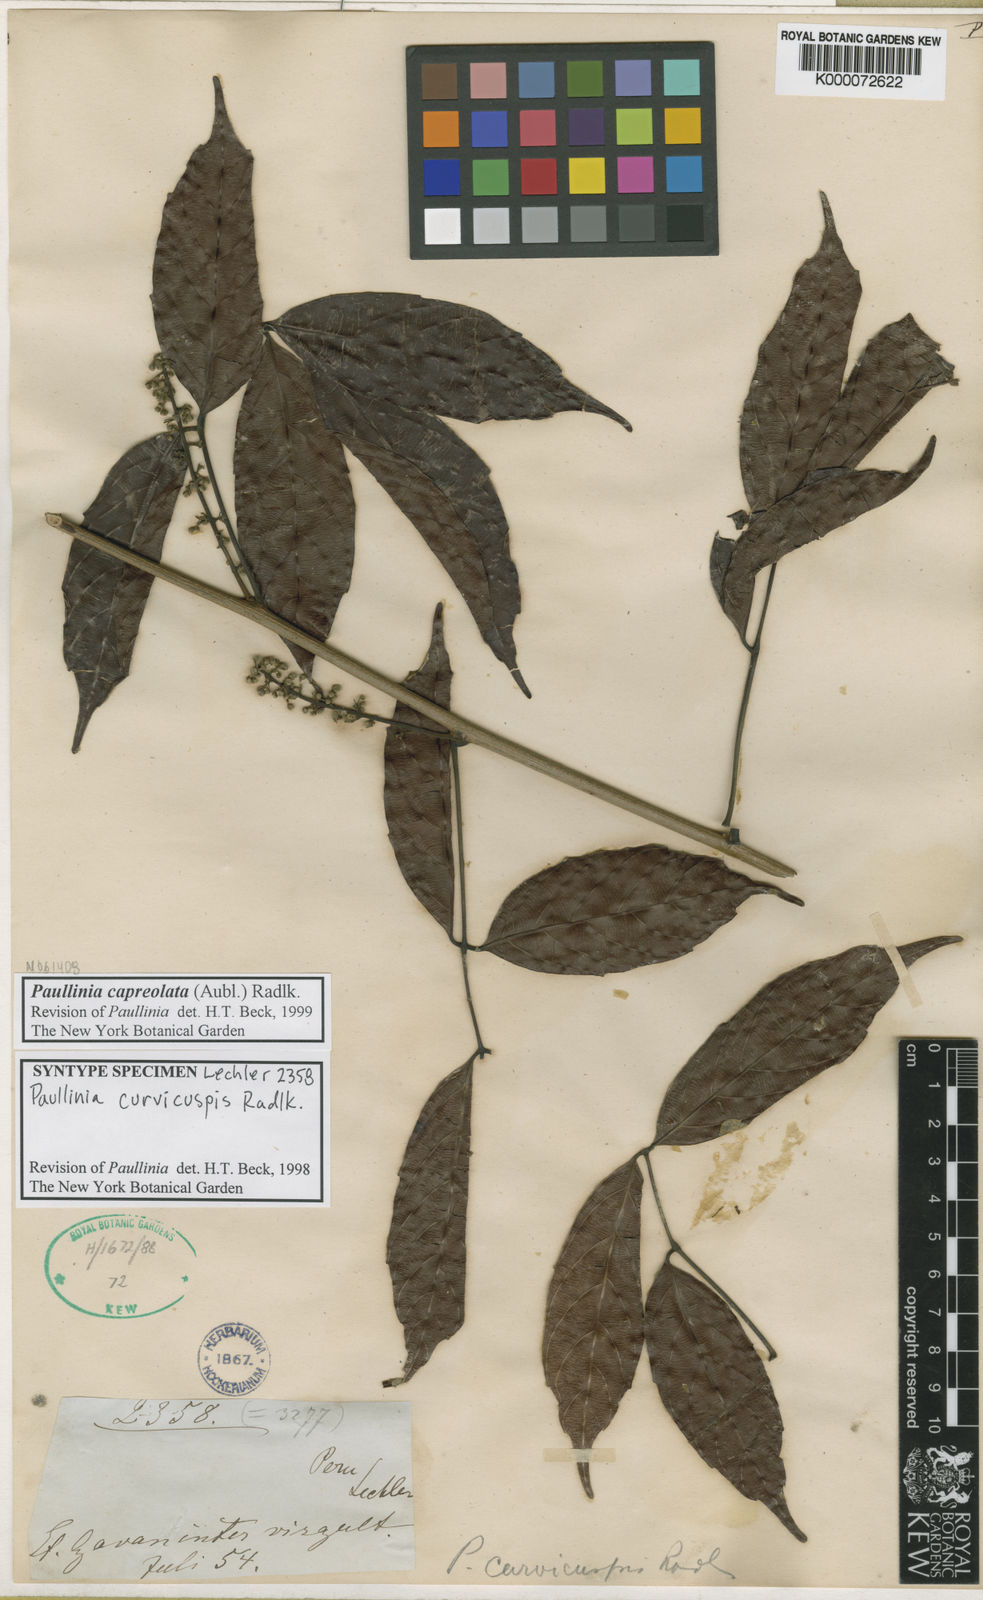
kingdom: Plantae
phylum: Tracheophyta
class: Magnoliopsida
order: Sapindales
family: Sapindaceae
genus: Paullinia
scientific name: Paullinia capreolata
